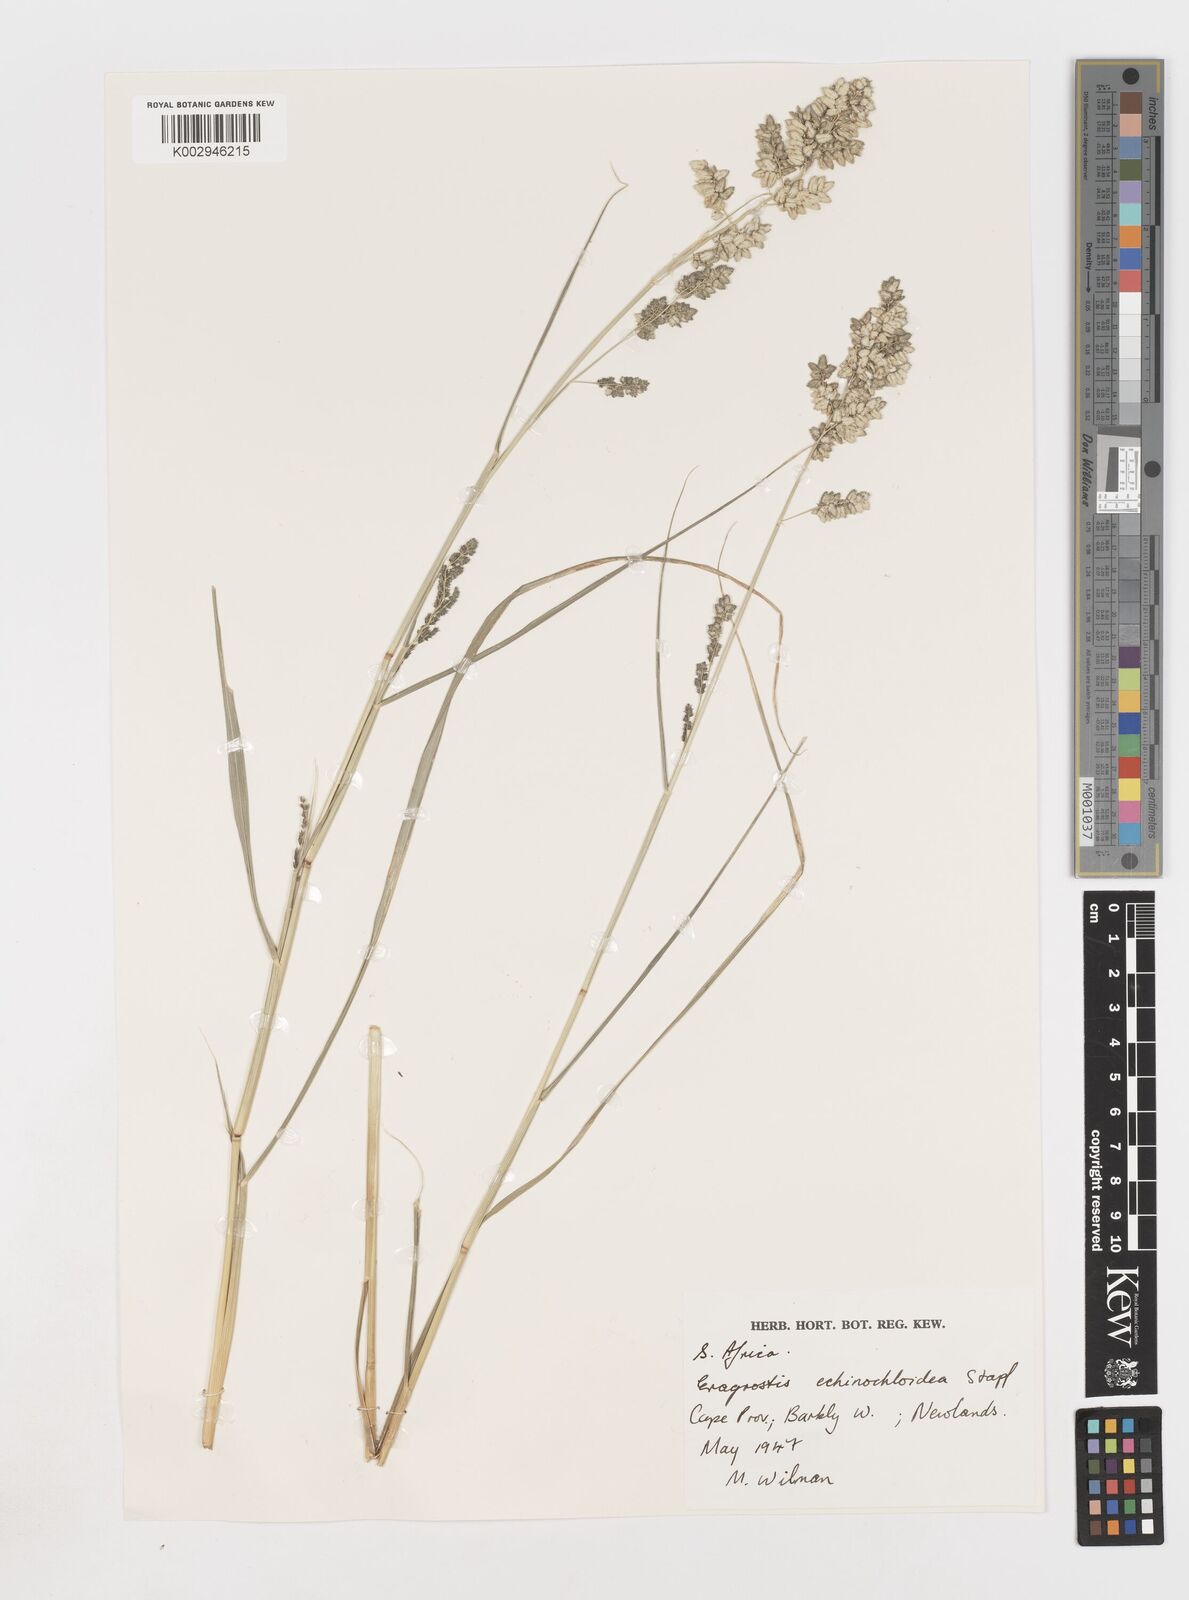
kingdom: Plantae
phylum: Tracheophyta
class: Liliopsida
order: Poales
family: Poaceae
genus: Eragrostis
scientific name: Eragrostis echinochloidea
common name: African lovegrass
